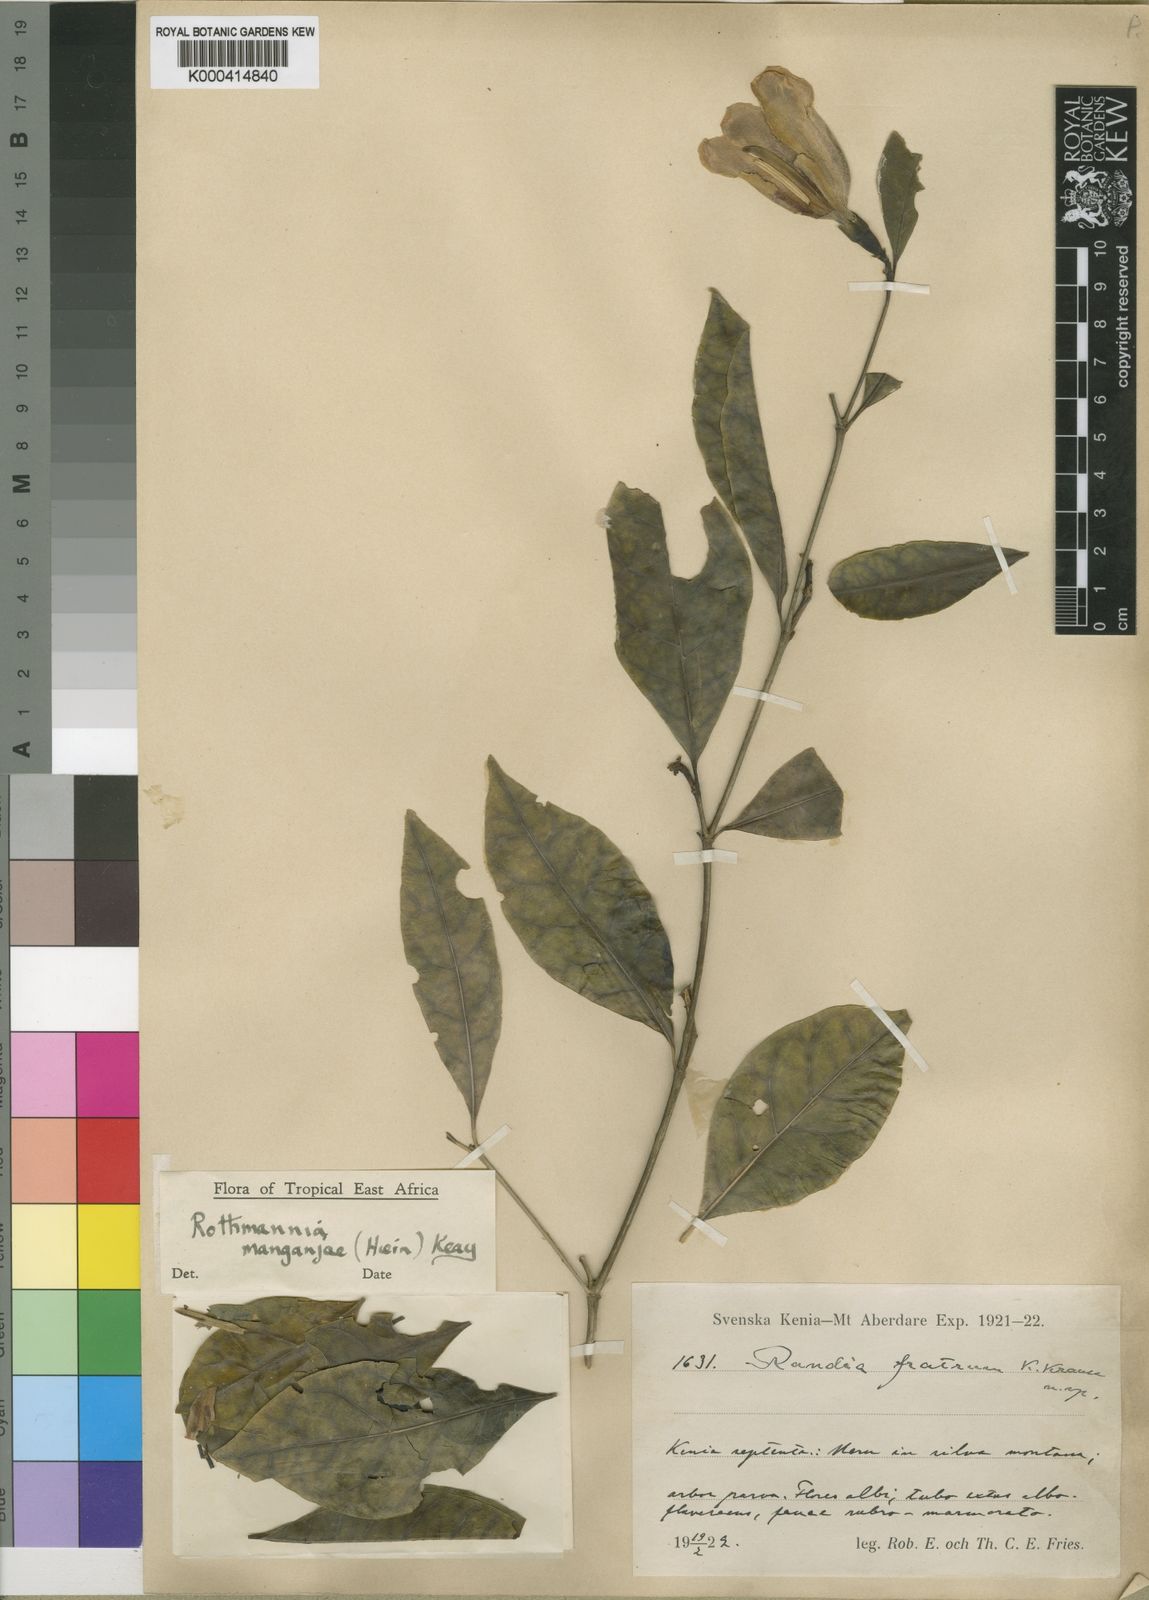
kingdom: Plantae
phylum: Tracheophyta
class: Magnoliopsida
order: Gentianales
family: Rubiaceae
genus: Rothmannia
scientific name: Rothmannia manganjae
